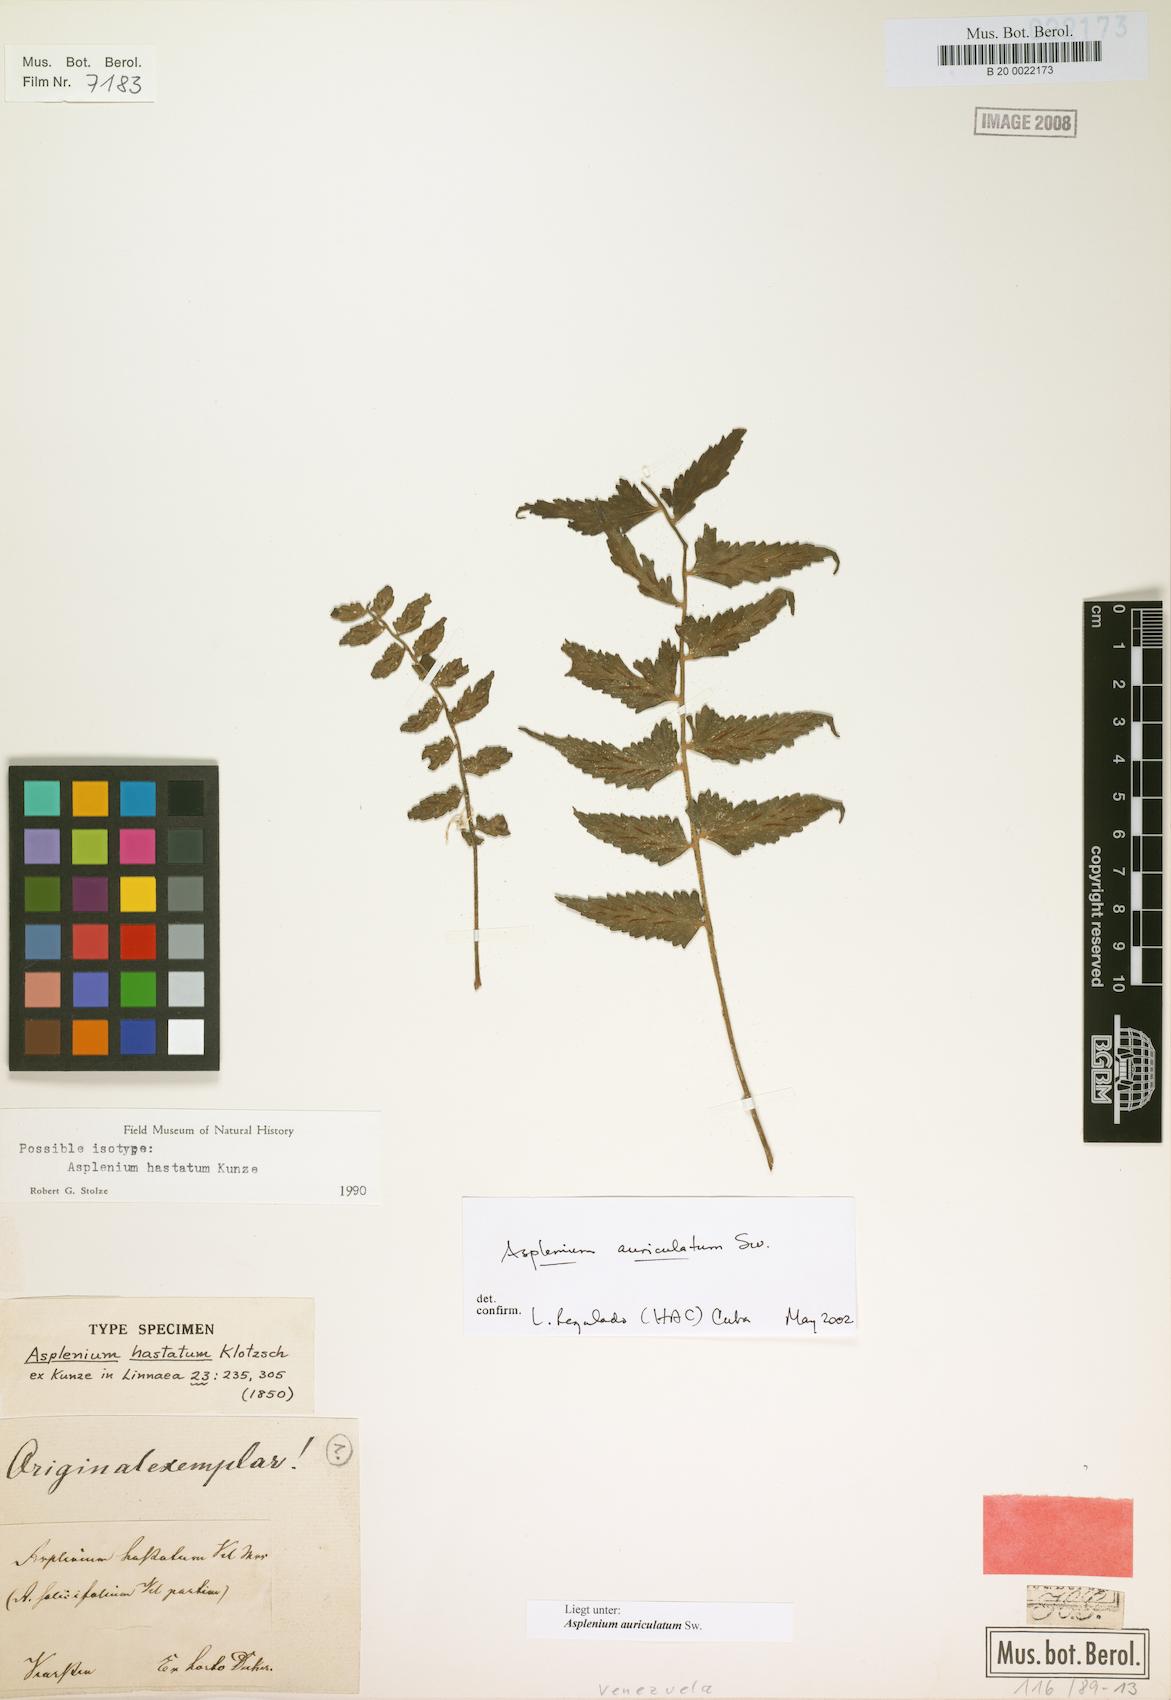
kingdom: Plantae
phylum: Tracheophyta
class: Polypodiopsida
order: Polypodiales
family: Aspleniaceae
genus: Asplenium
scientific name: Asplenium hastatum
